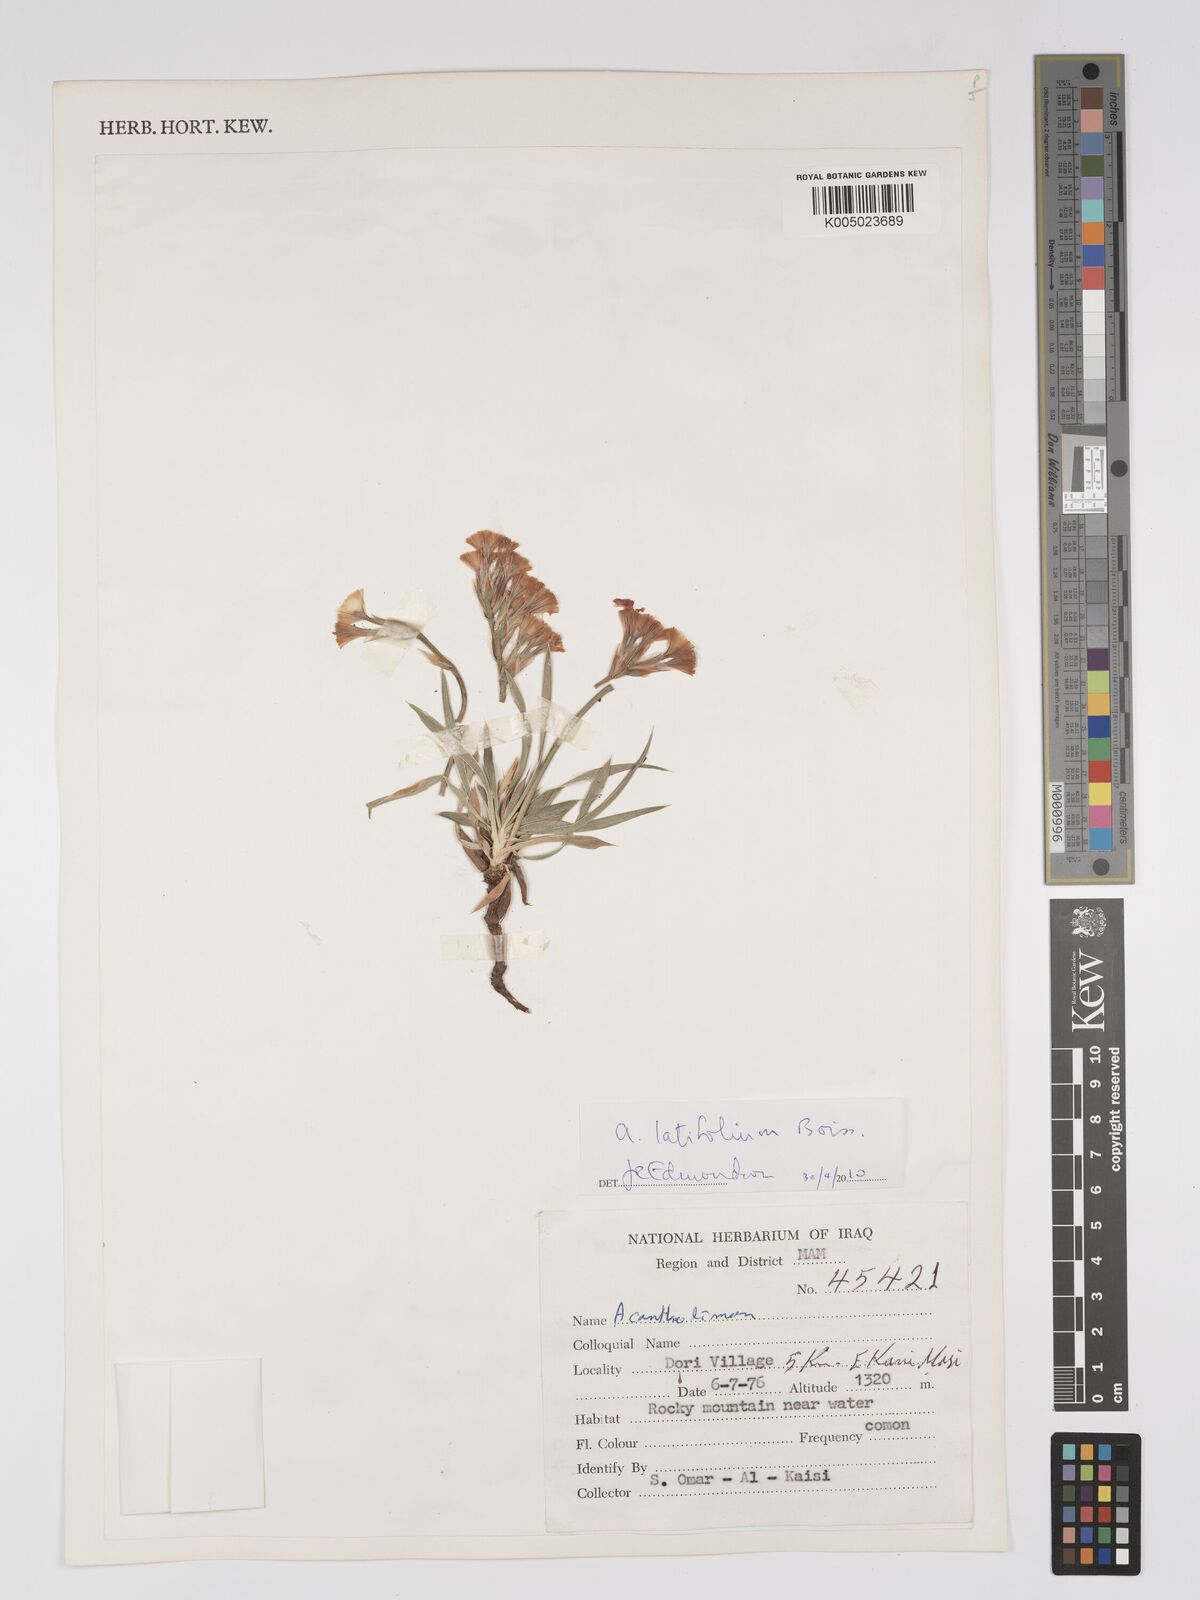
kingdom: Plantae
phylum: Tracheophyta
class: Magnoliopsida
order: Caryophyllales
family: Plumbaginaceae
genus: Acantholimon
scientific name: Acantholimon
